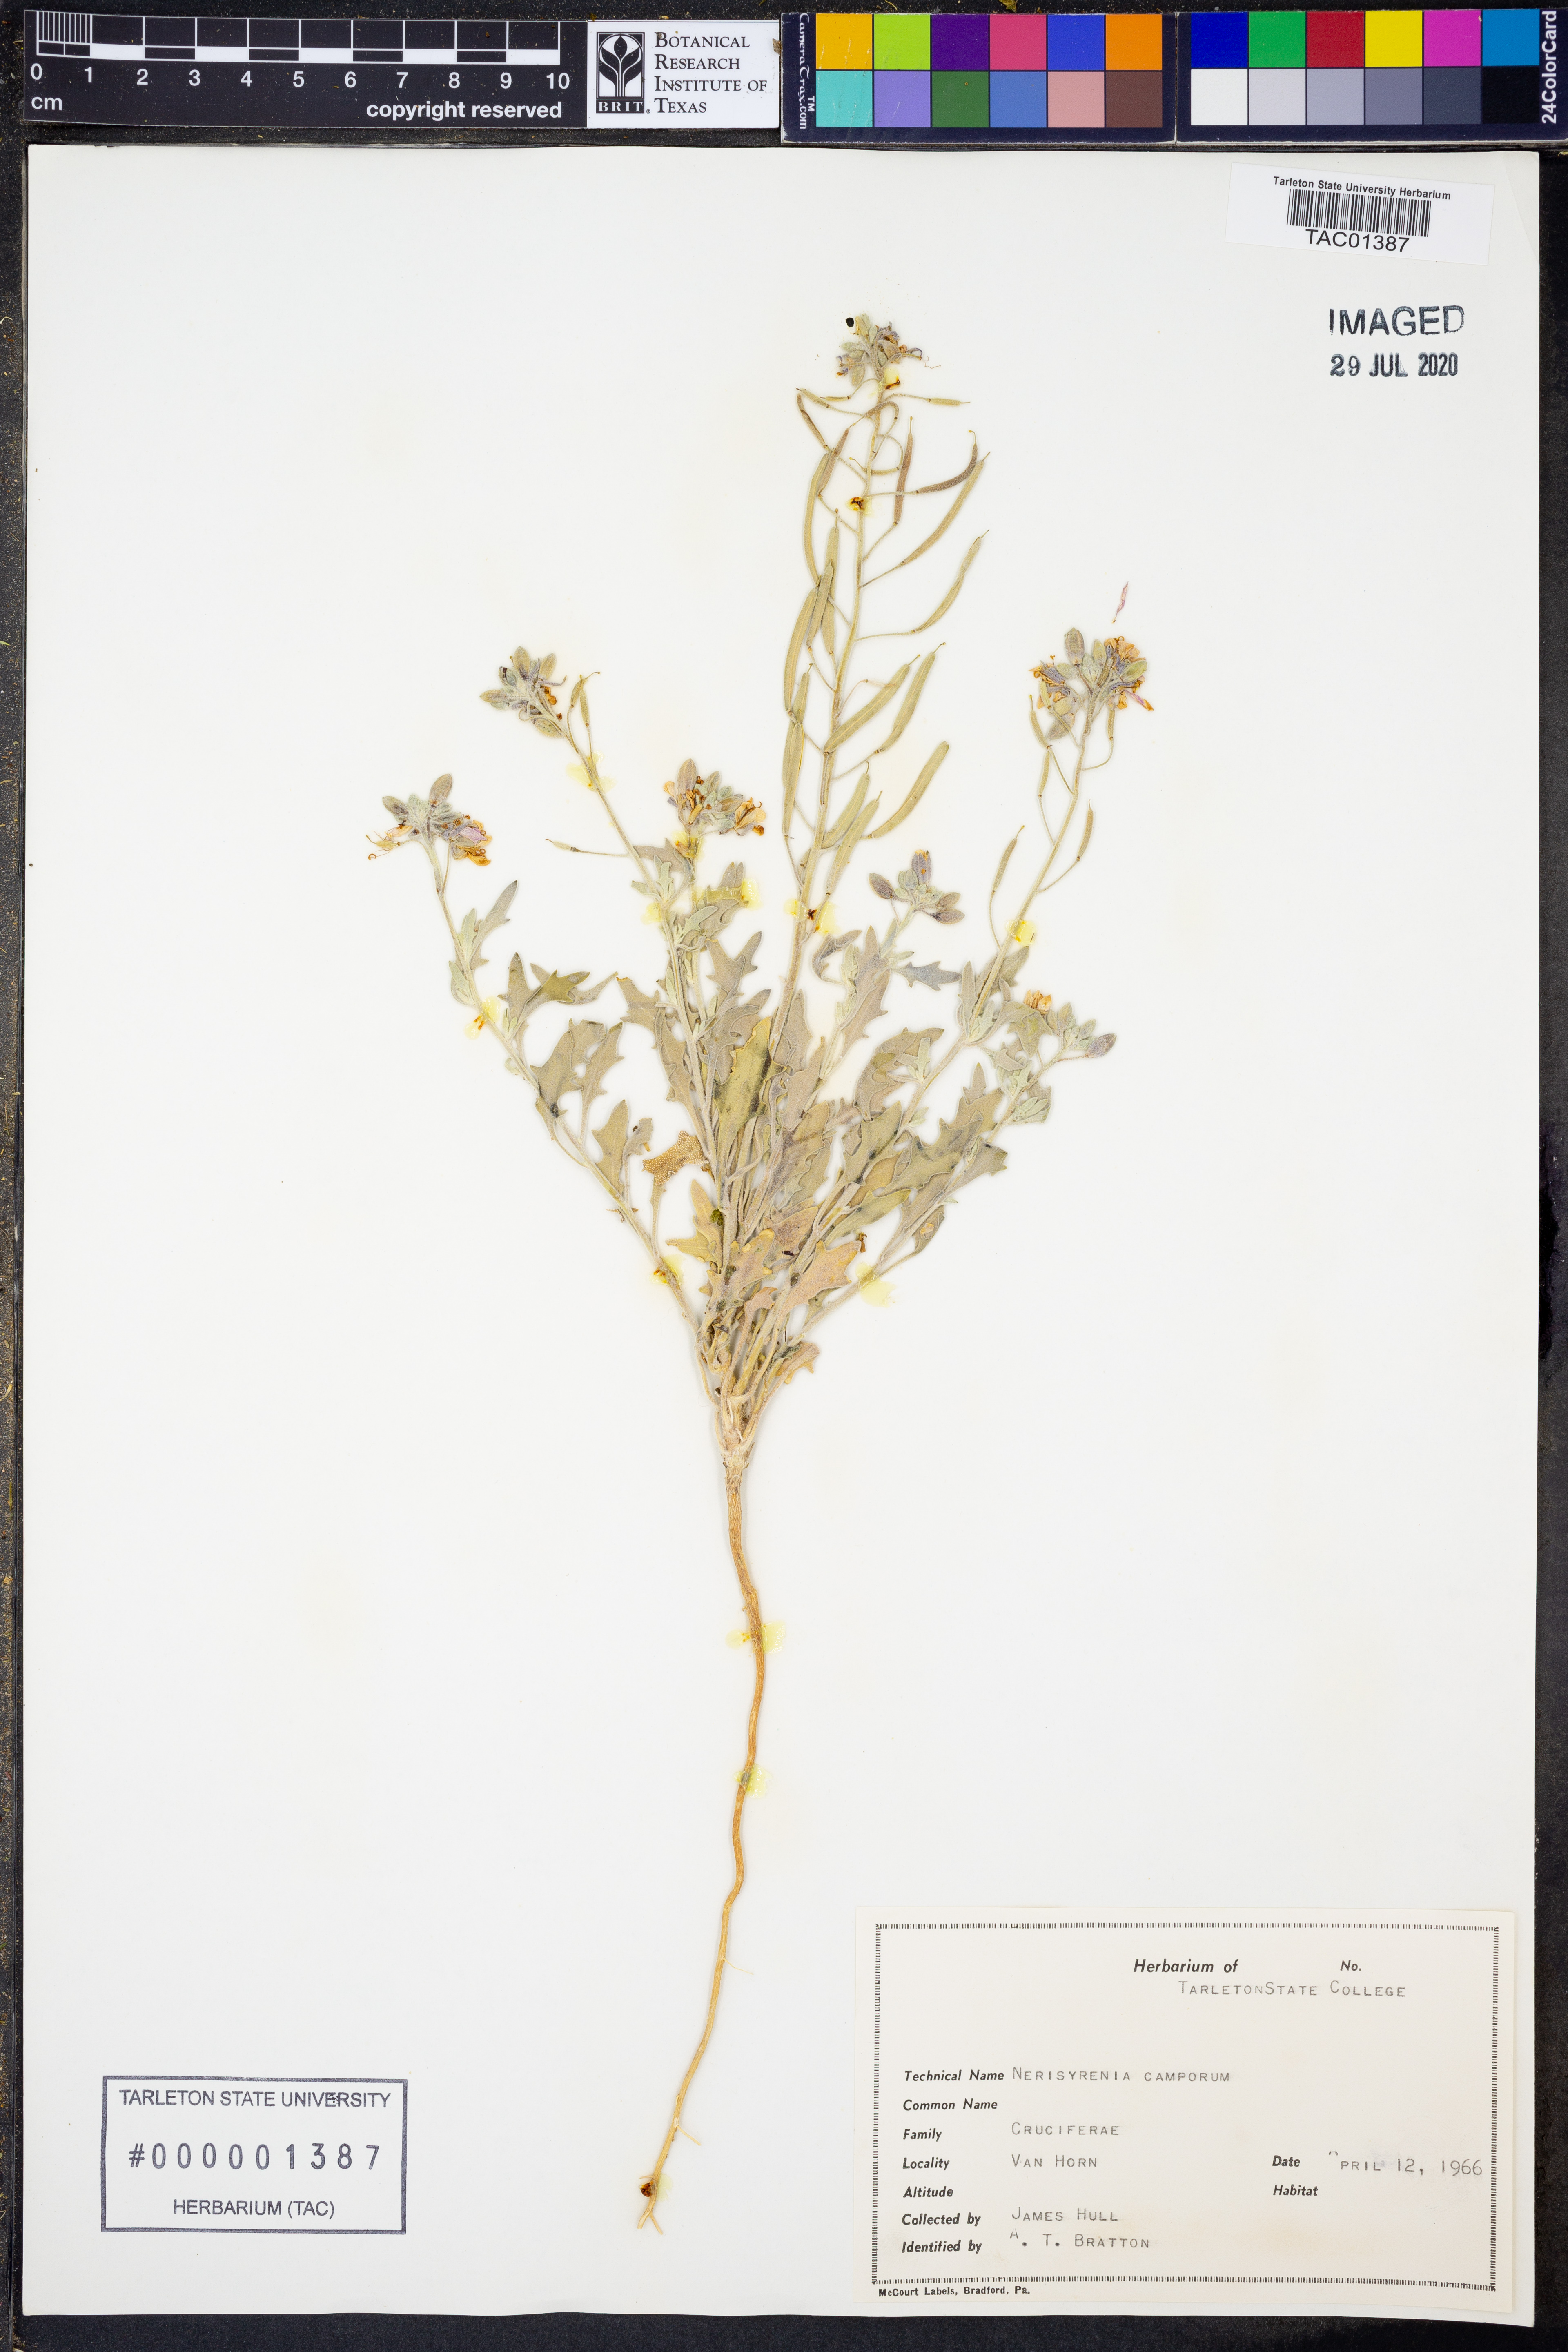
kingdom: Plantae
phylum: Tracheophyta
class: Magnoliopsida
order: Brassicales
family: Brassicaceae
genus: Nerisyrenia
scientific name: Nerisyrenia camporum
